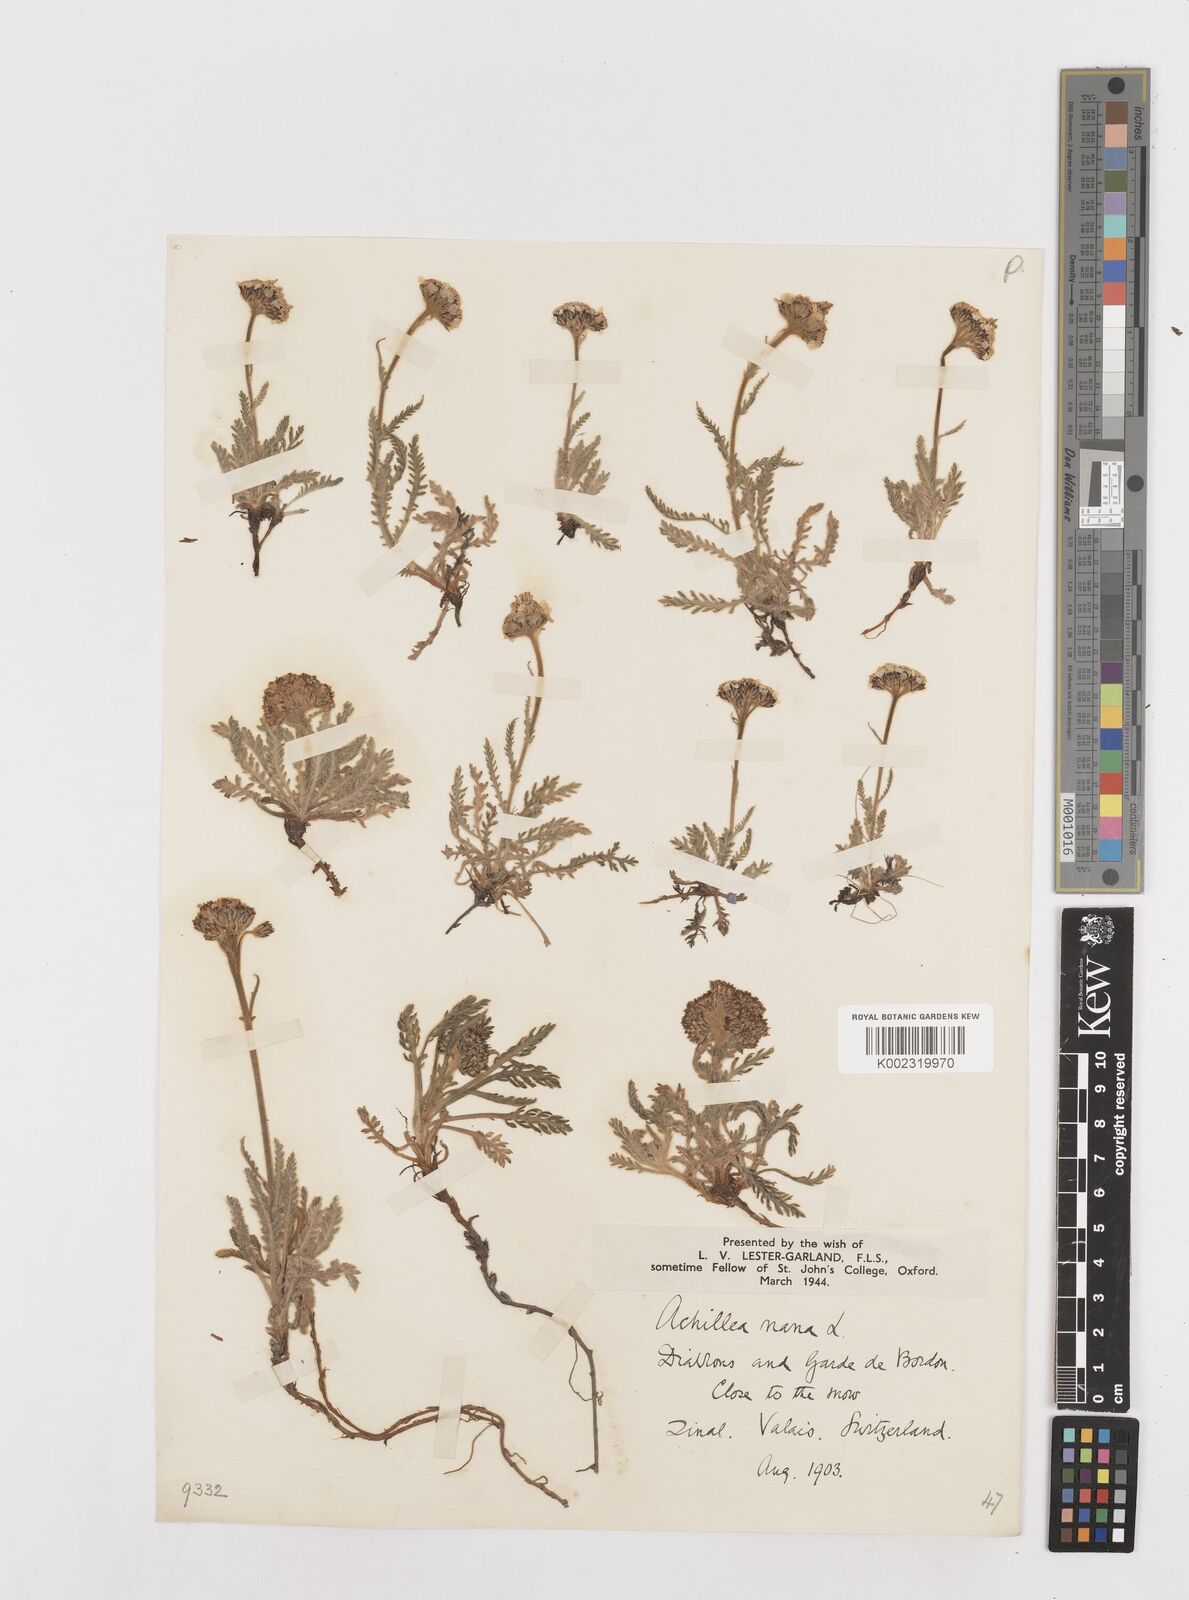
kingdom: Plantae
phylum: Tracheophyta
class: Magnoliopsida
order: Asterales
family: Asteraceae
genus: Achillea
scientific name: Achillea erba-rotta
